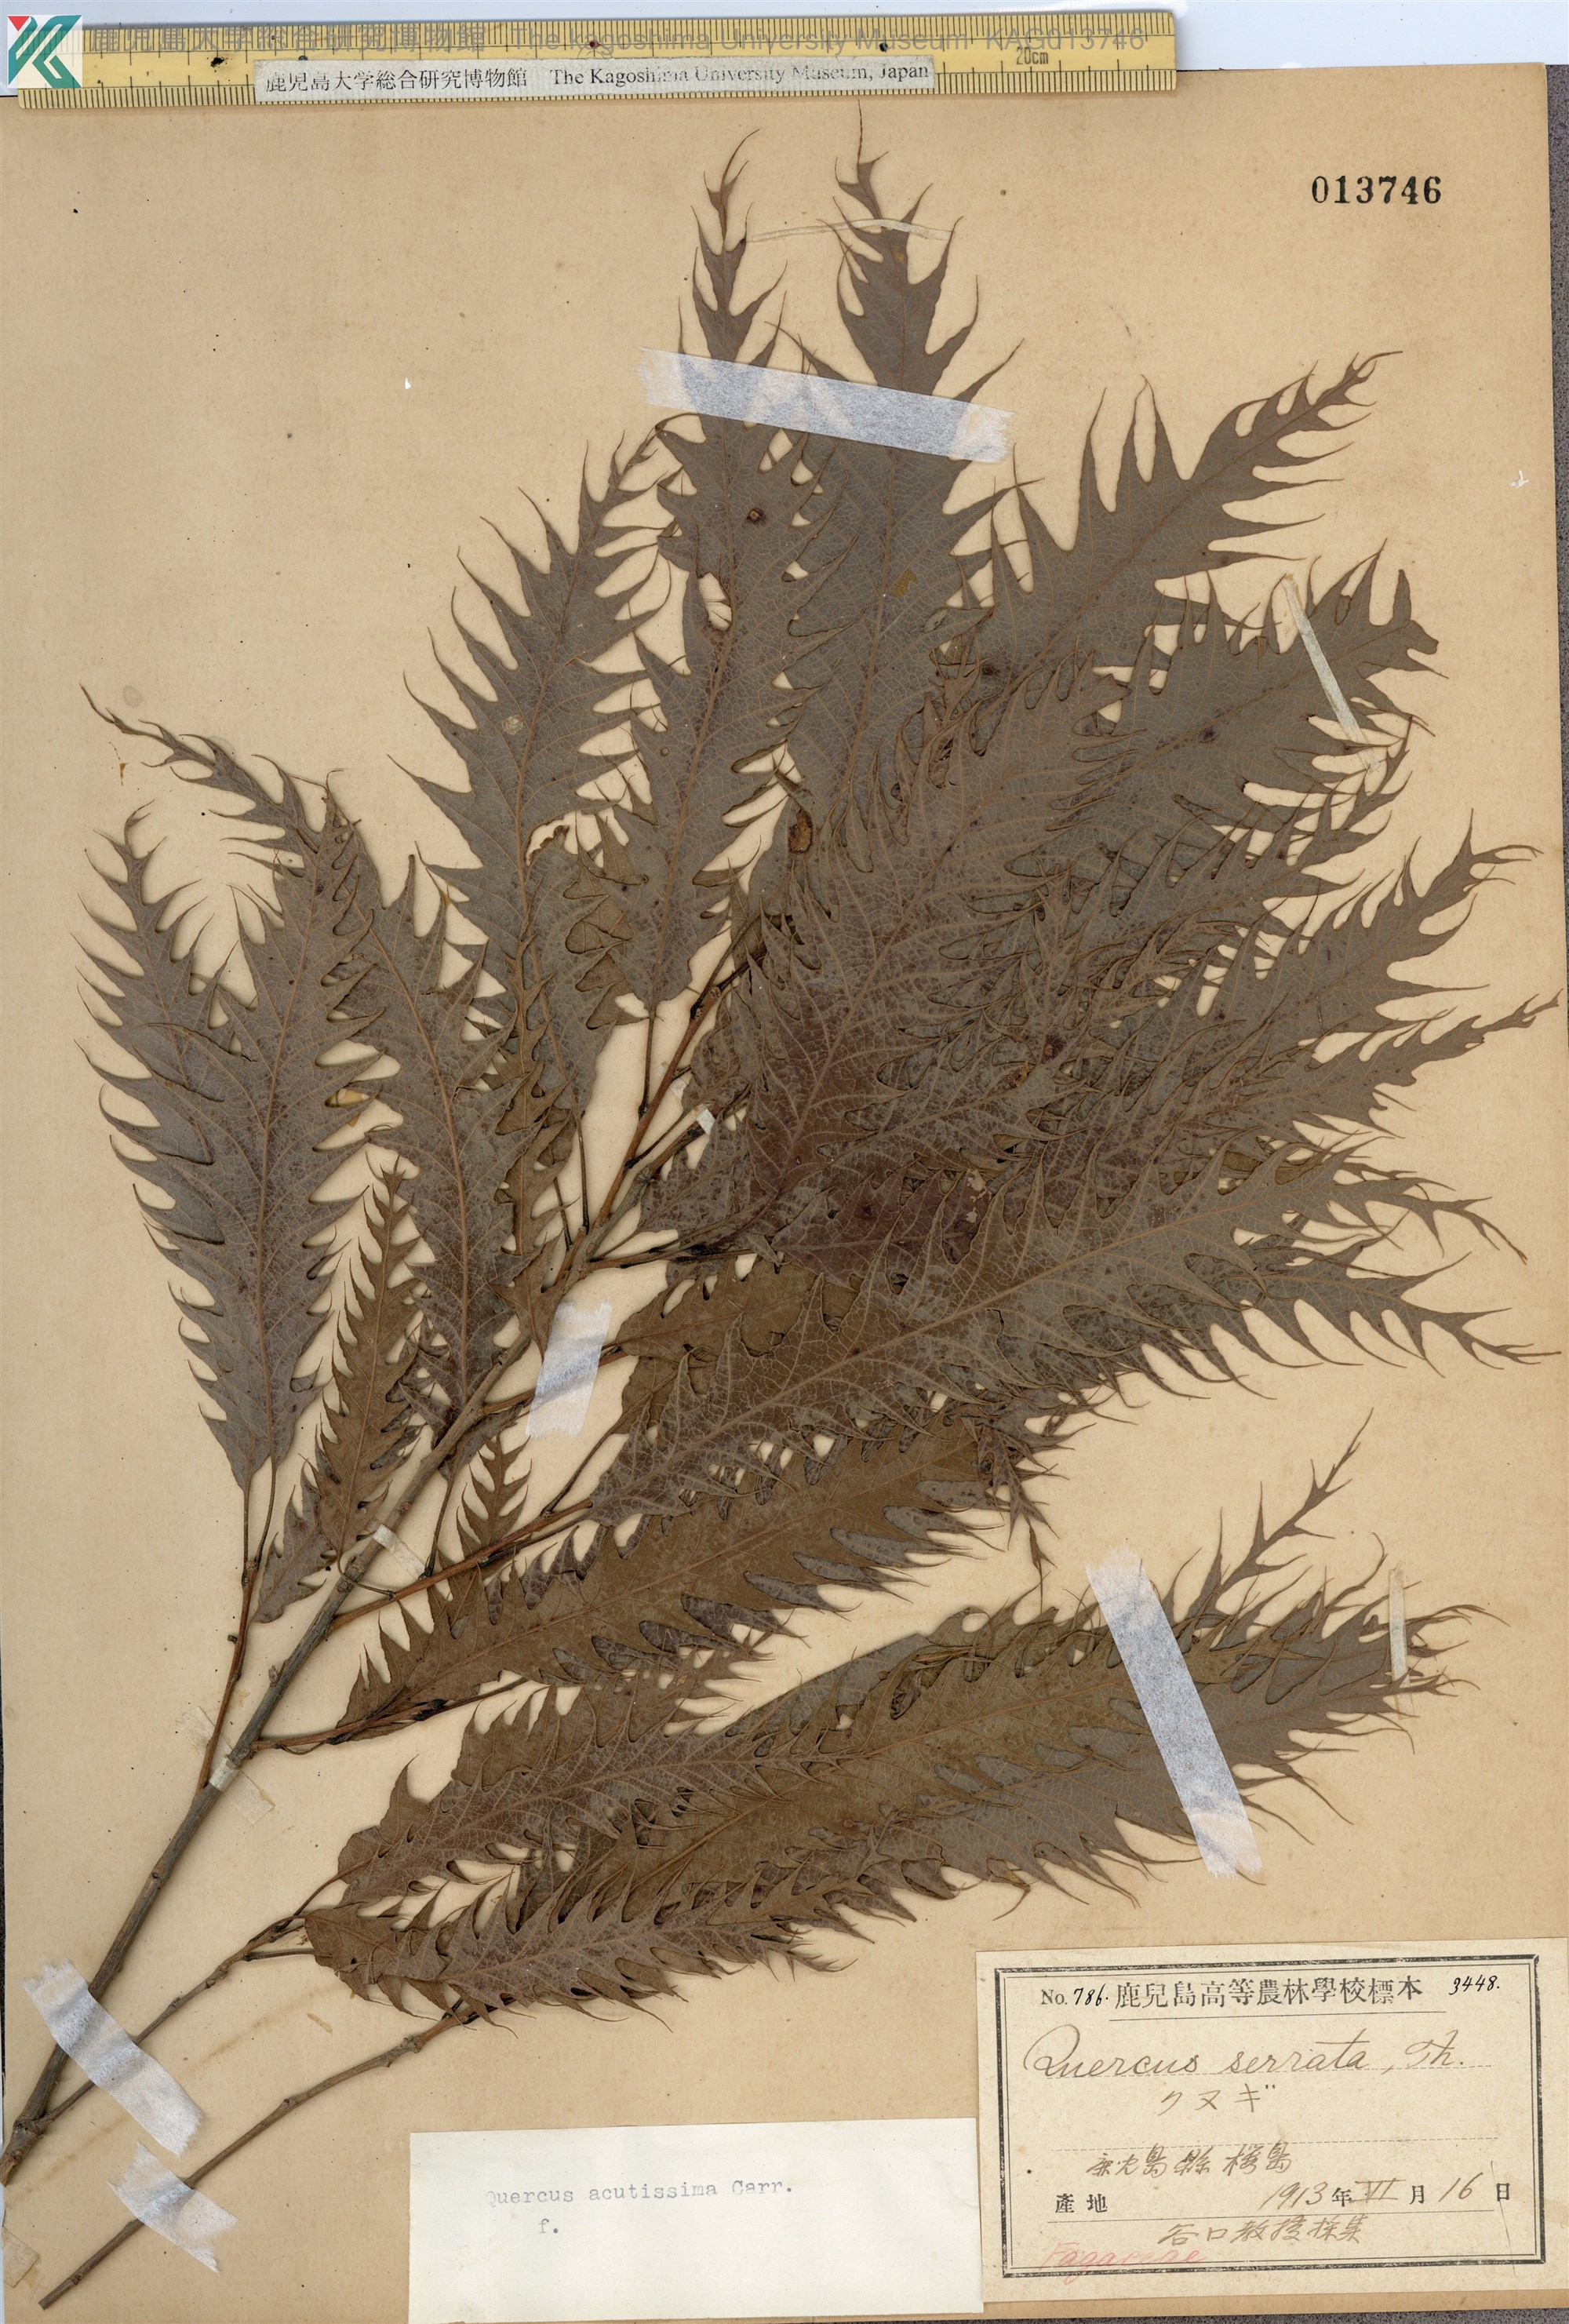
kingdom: Plantae
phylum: Tracheophyta
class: Magnoliopsida
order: Fagales
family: Fagaceae
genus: Quercus
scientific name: Quercus acutissima
